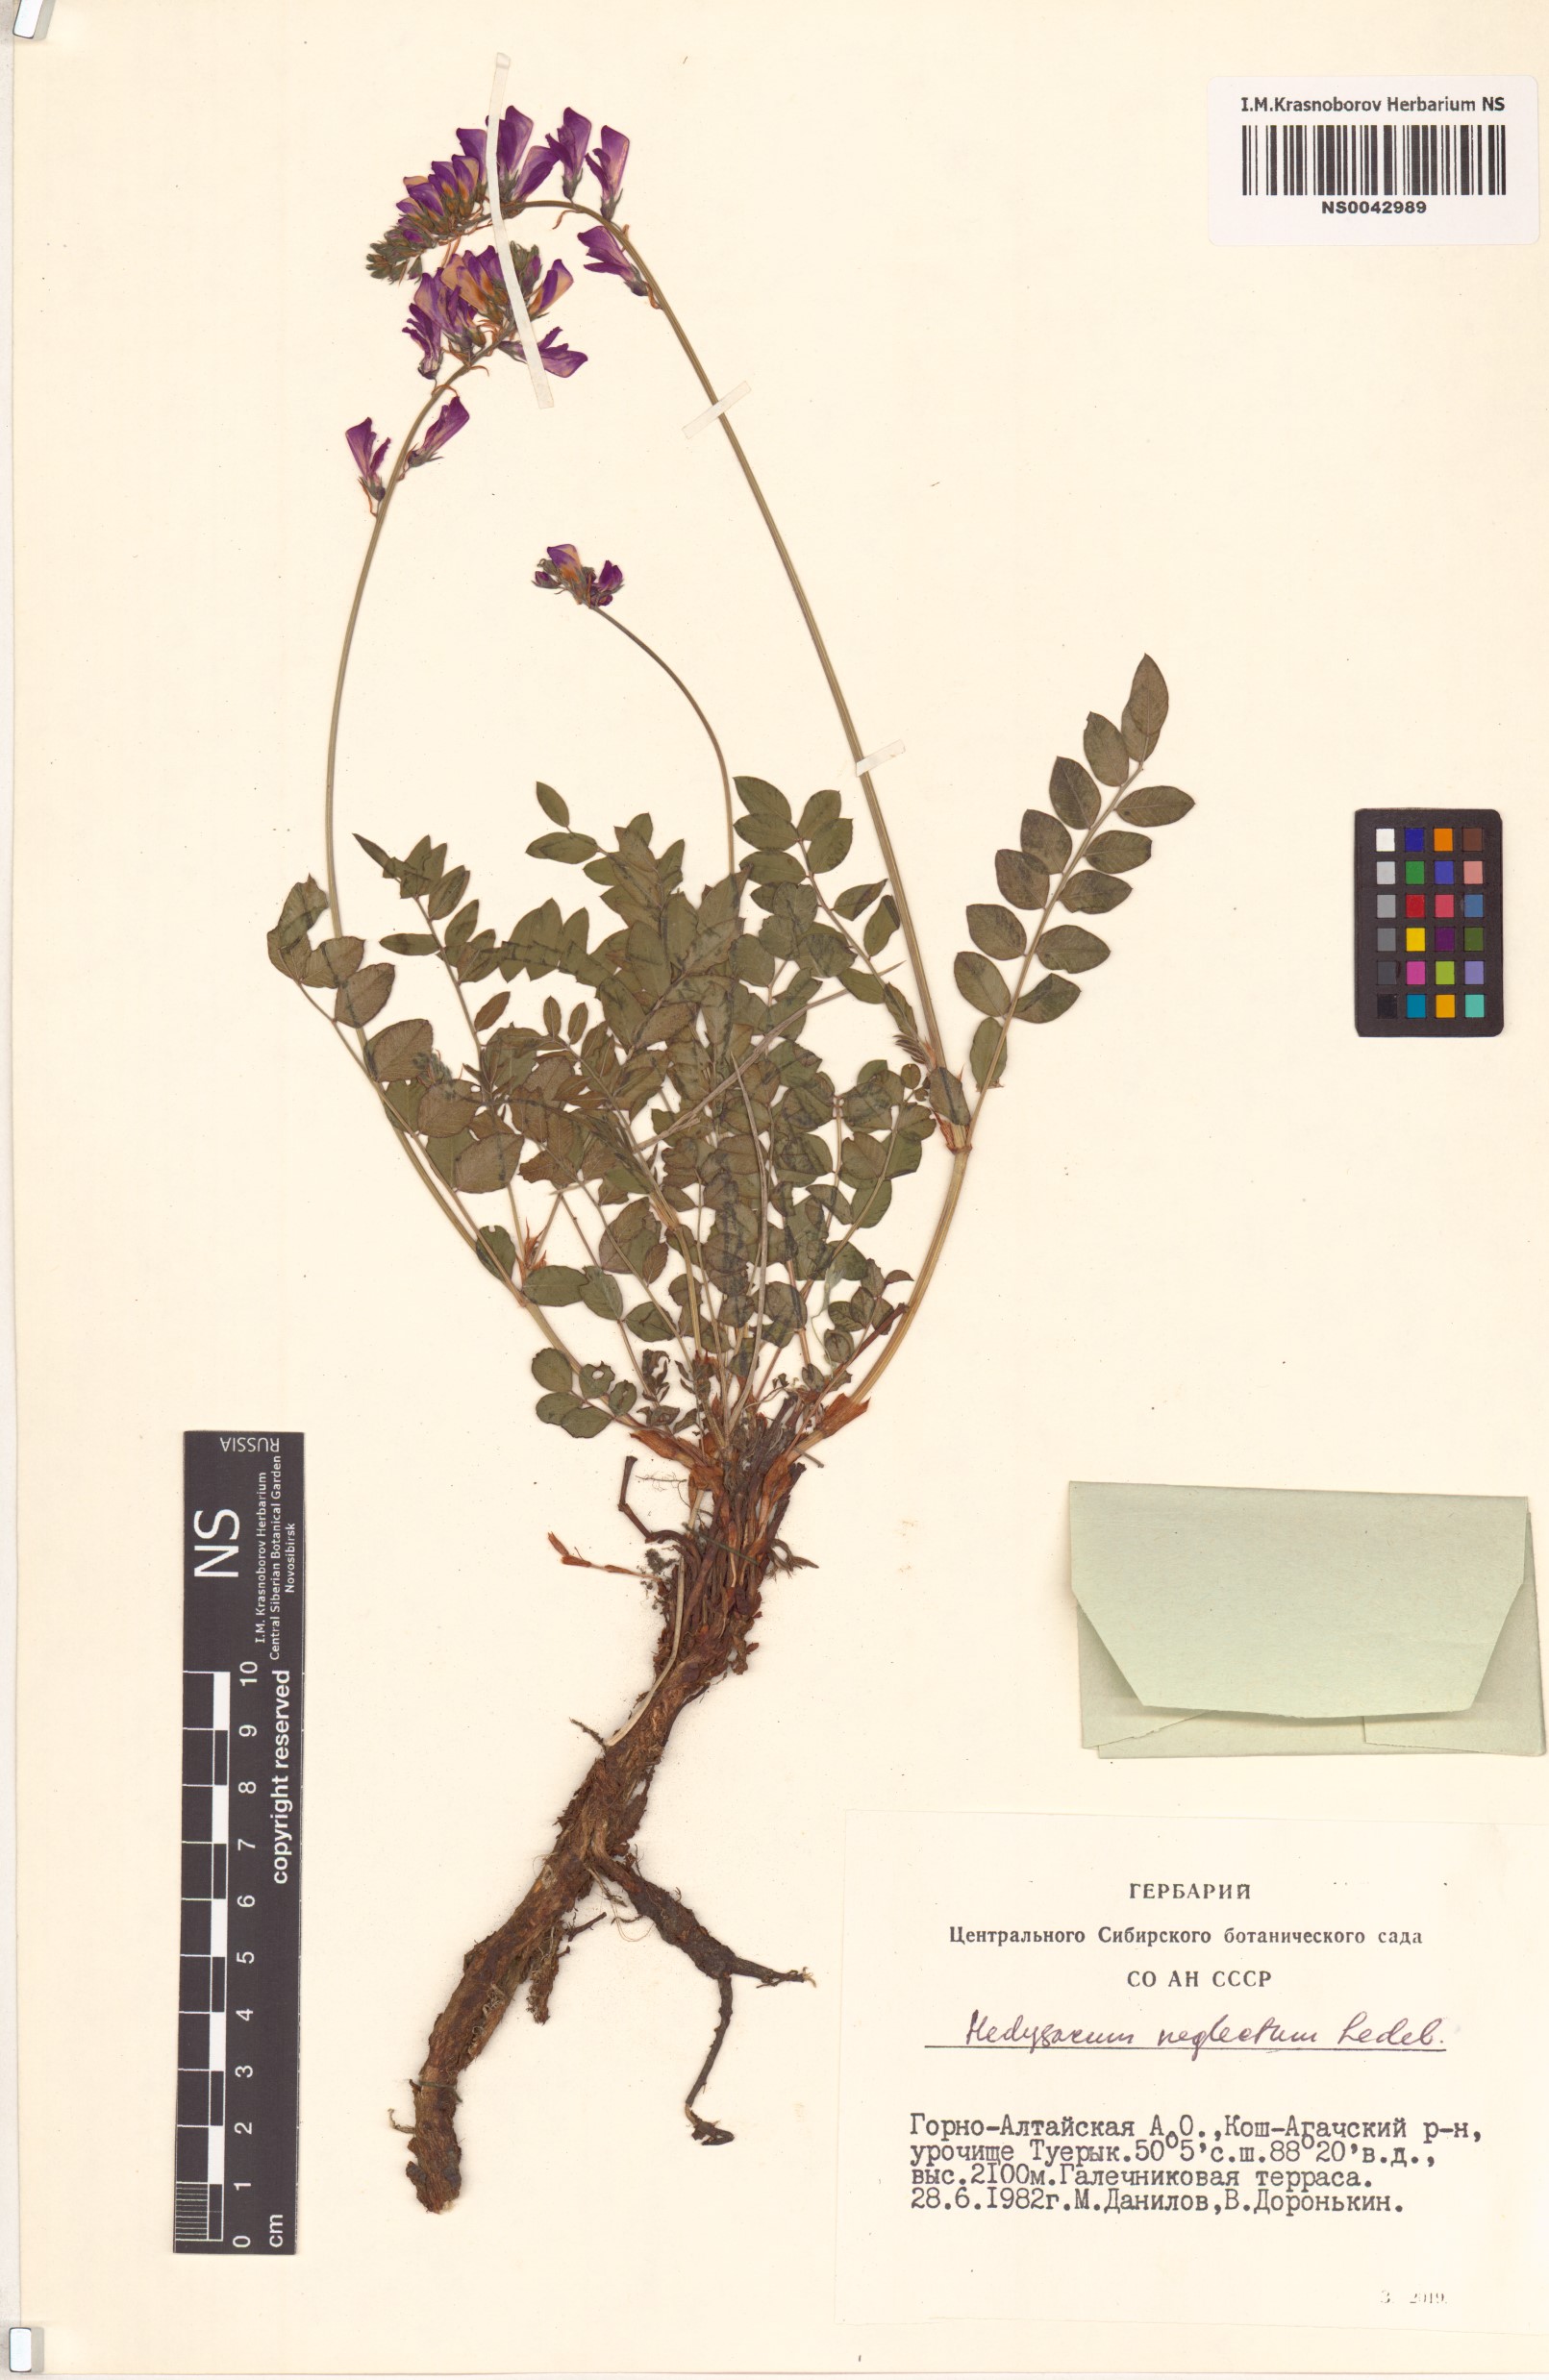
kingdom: Plantae
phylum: Tracheophyta
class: Magnoliopsida
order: Fabales
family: Fabaceae
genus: Hedysarum
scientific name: Hedysarum neglectum
